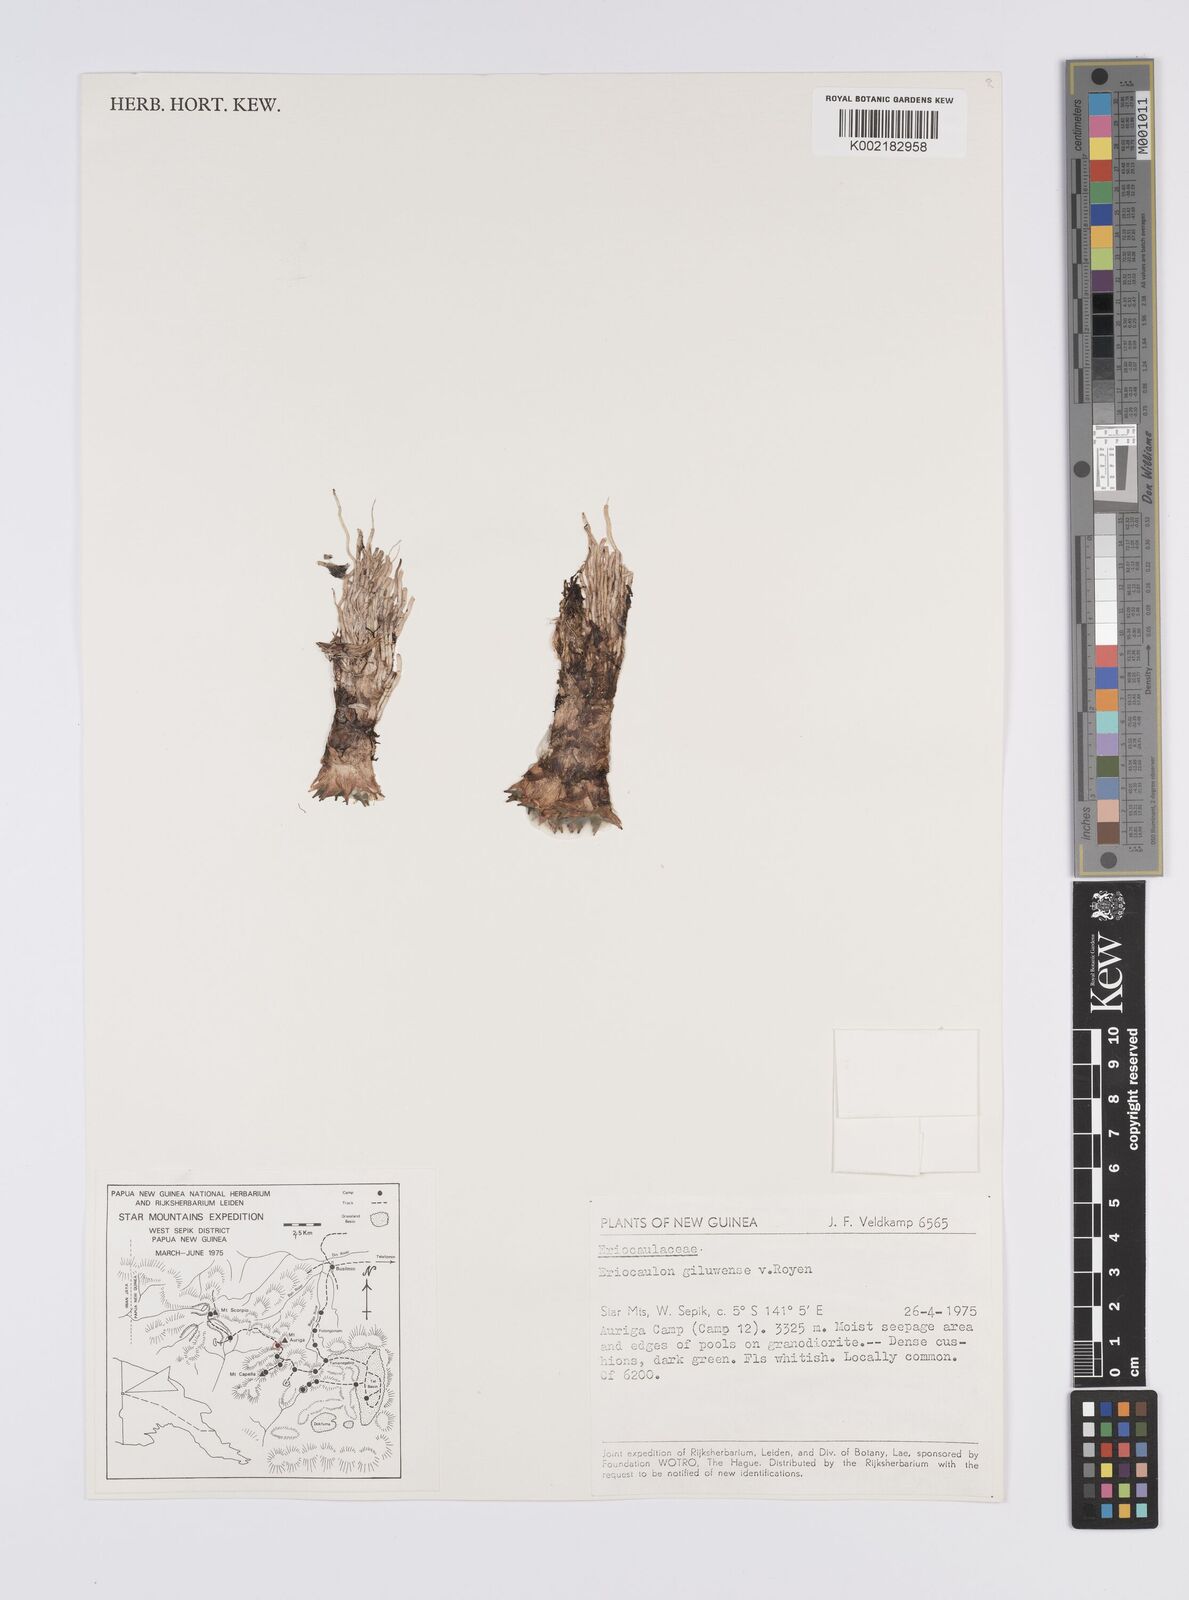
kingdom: Plantae
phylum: Tracheophyta
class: Liliopsida
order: Poales
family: Eriocaulaceae
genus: Eriocaulon
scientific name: Eriocaulon giluwense
